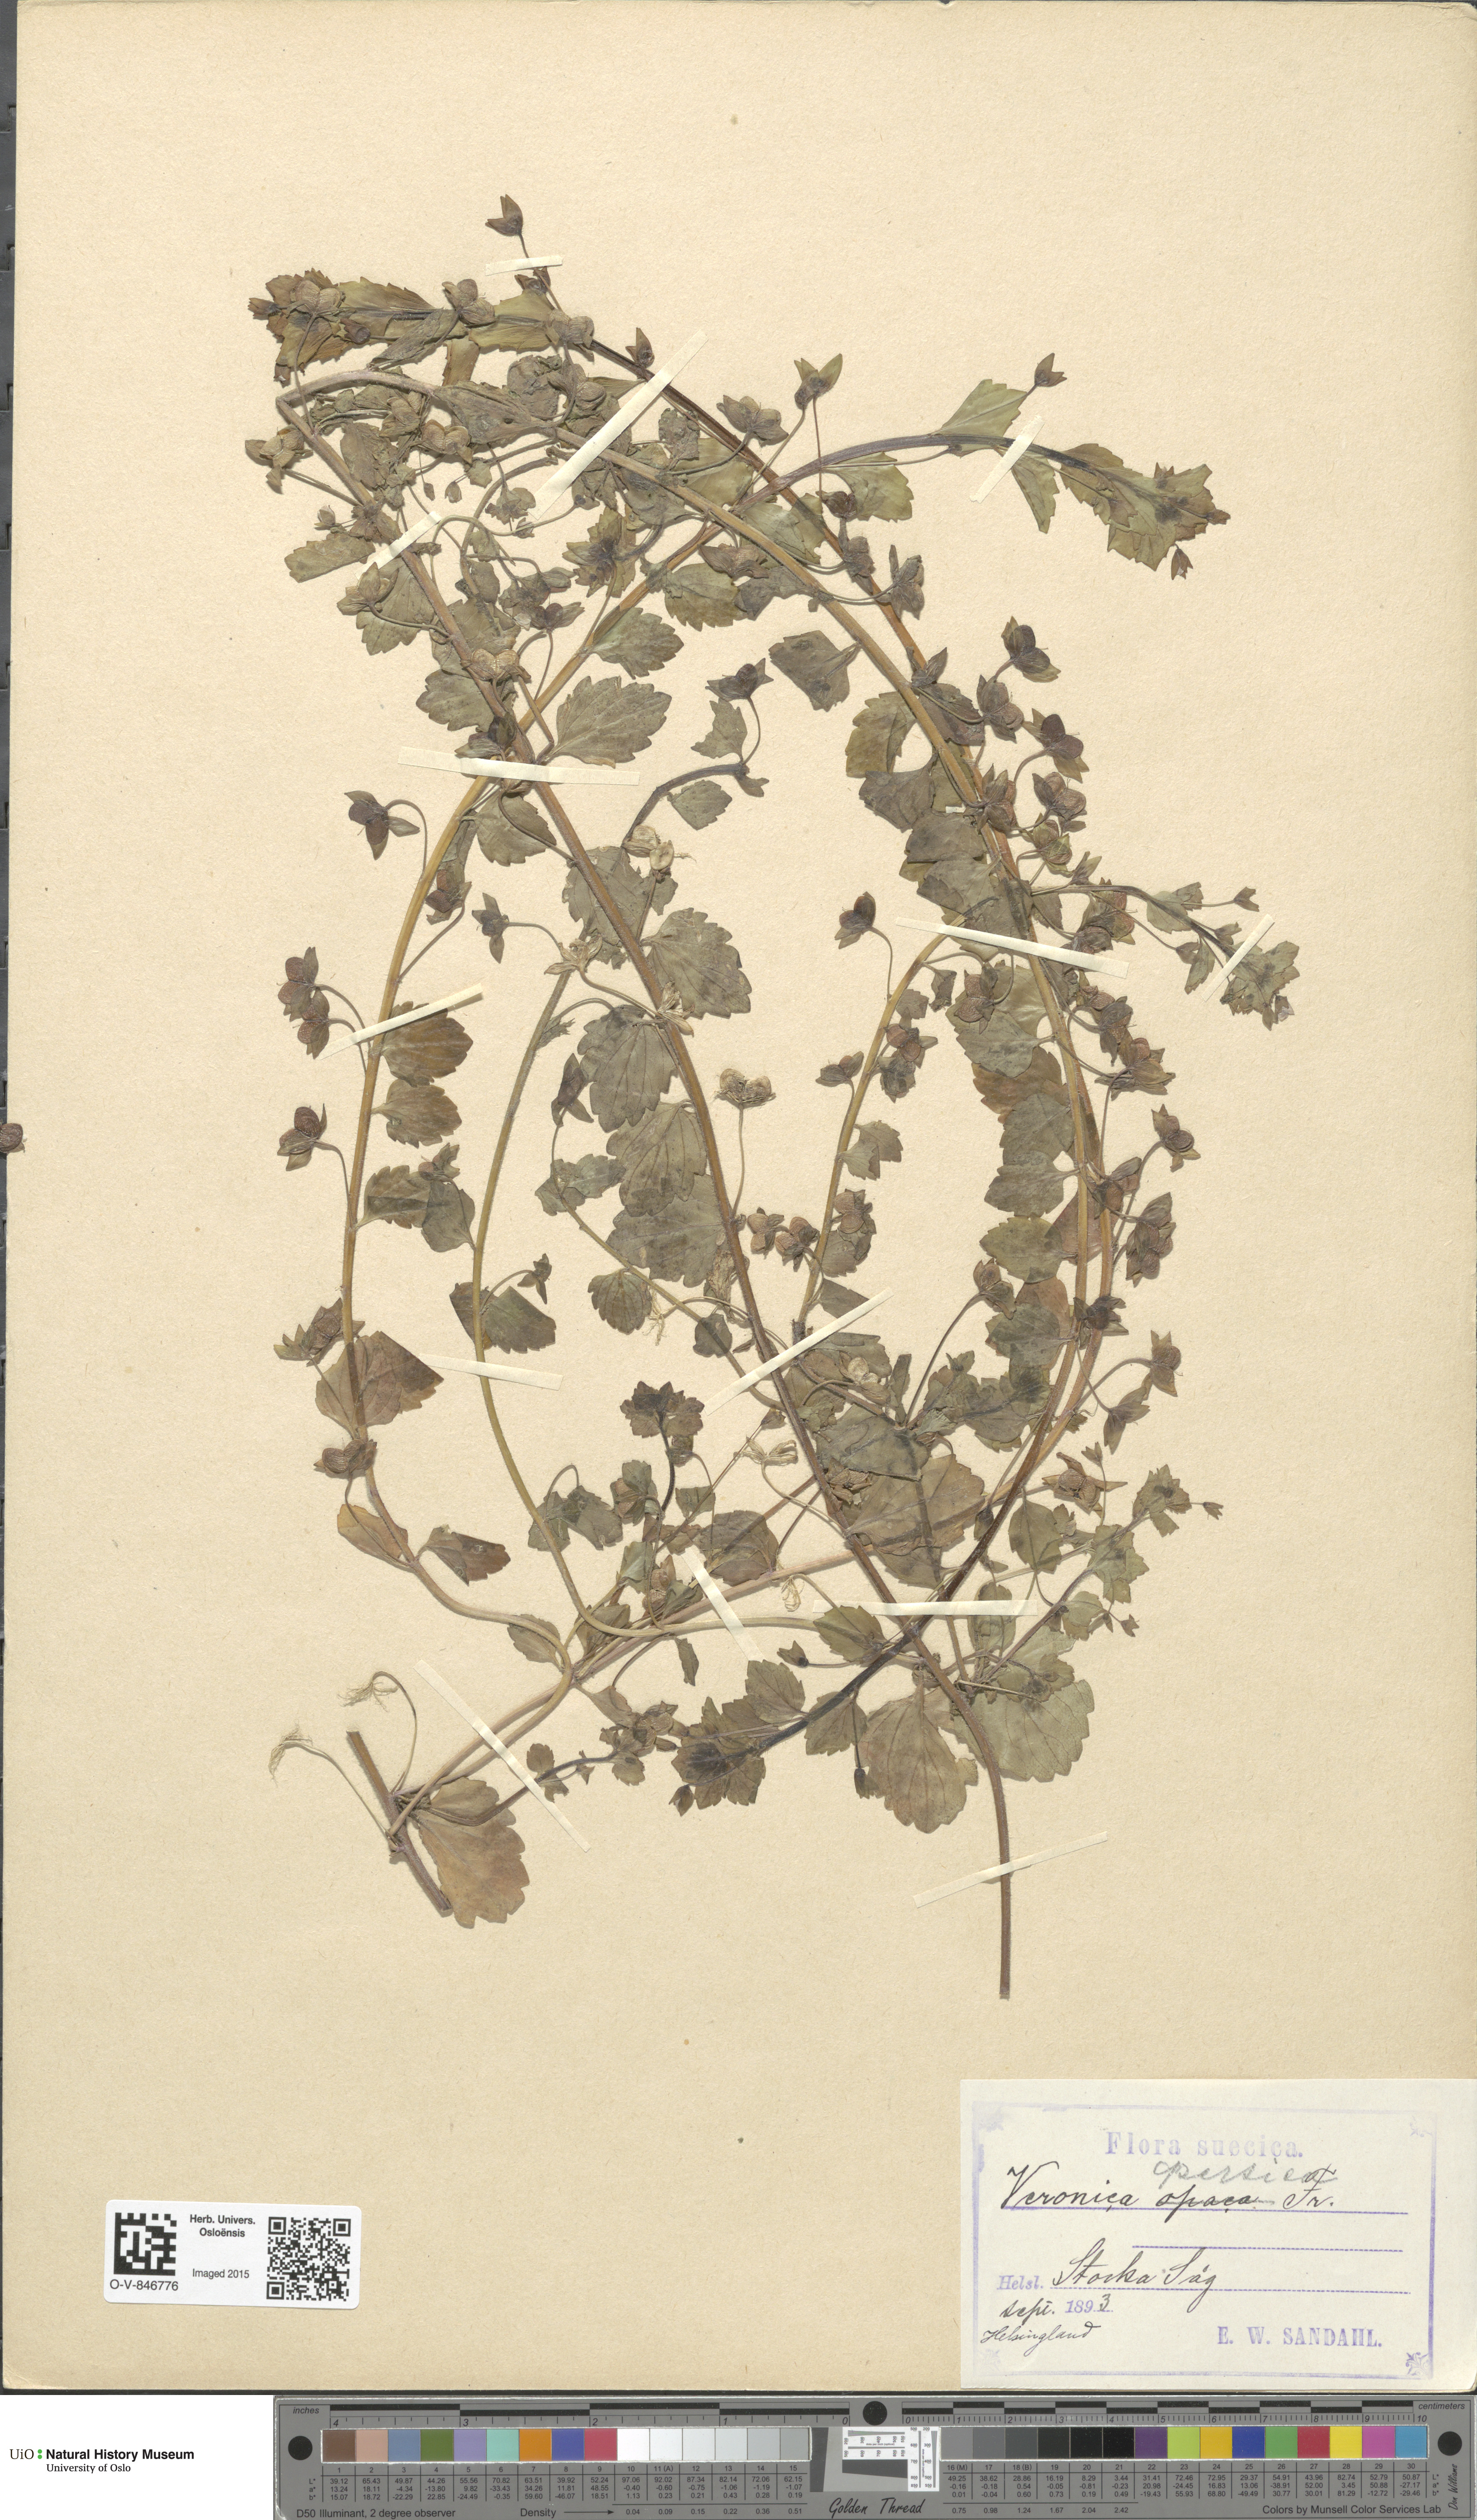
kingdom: Plantae
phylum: Tracheophyta
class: Magnoliopsida
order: Lamiales
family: Plantaginaceae
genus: Veronica
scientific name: Veronica persica
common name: Common field-speedwell
